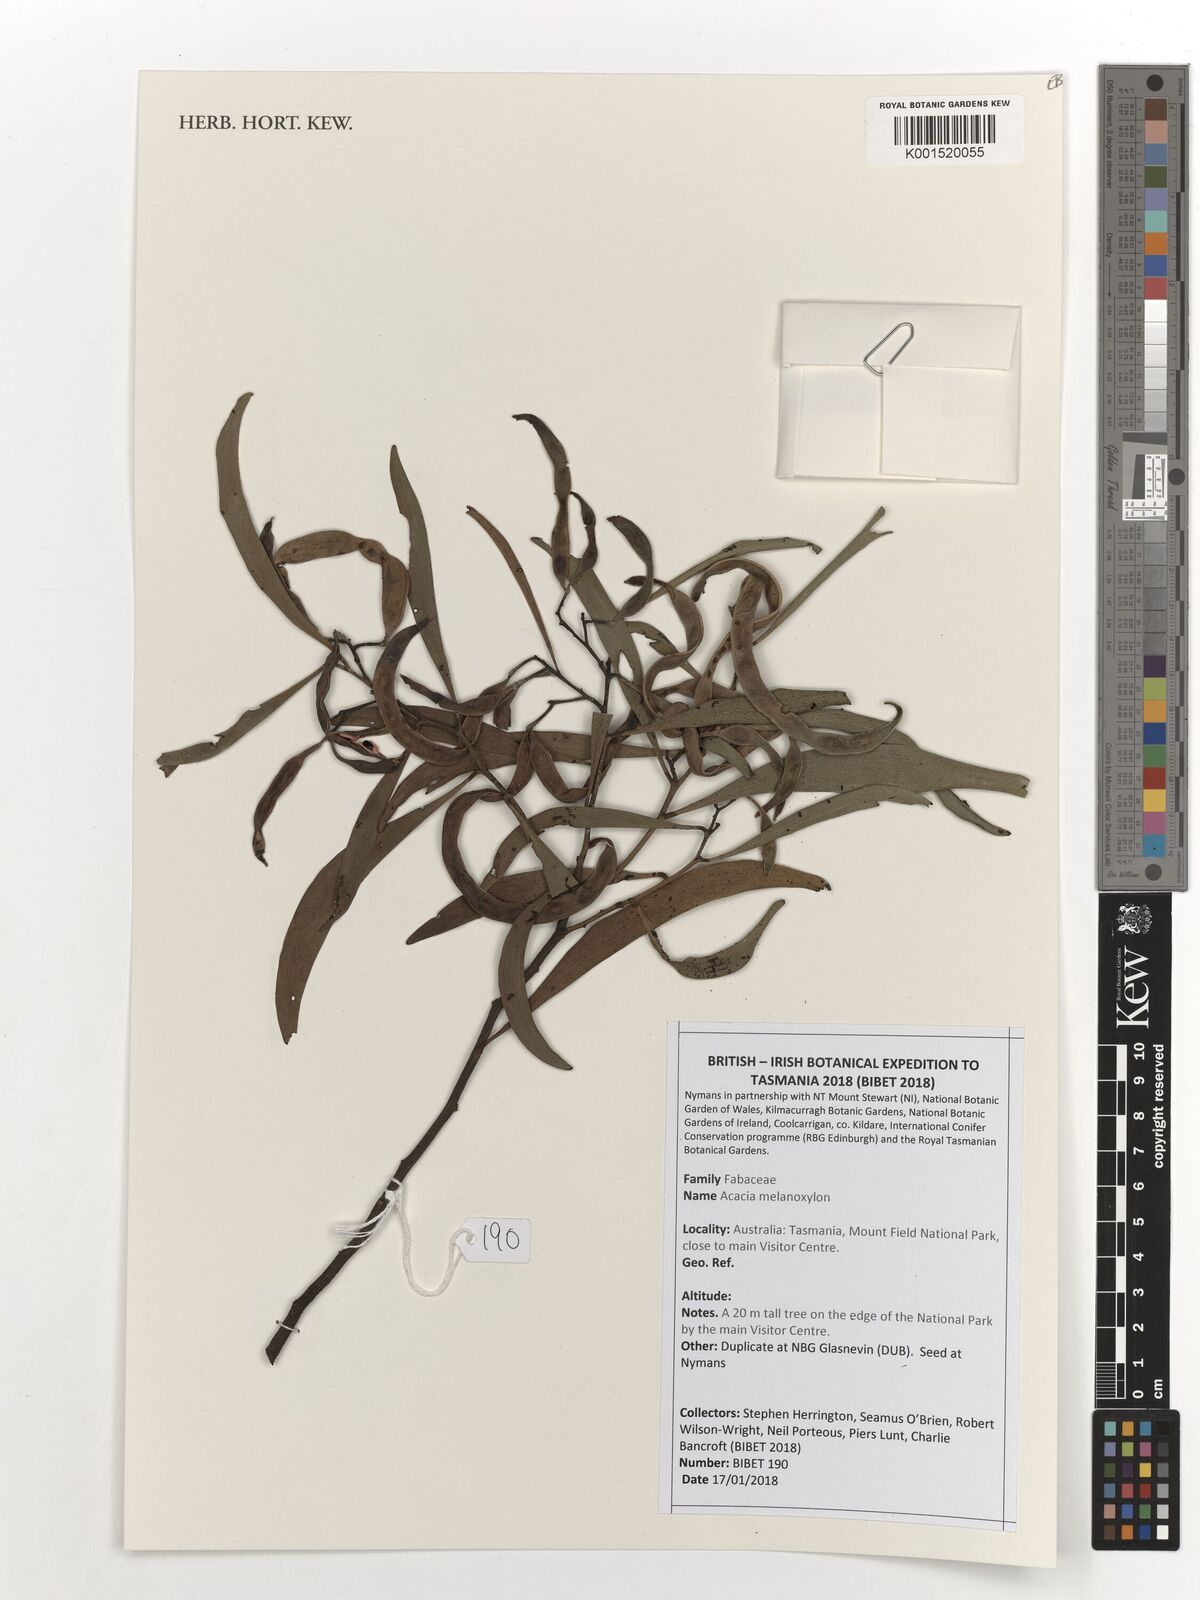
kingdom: Plantae
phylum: Tracheophyta
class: Magnoliopsida
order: Fabales
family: Fabaceae
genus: Acacia
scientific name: Acacia melanoxylon
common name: Blackwood
